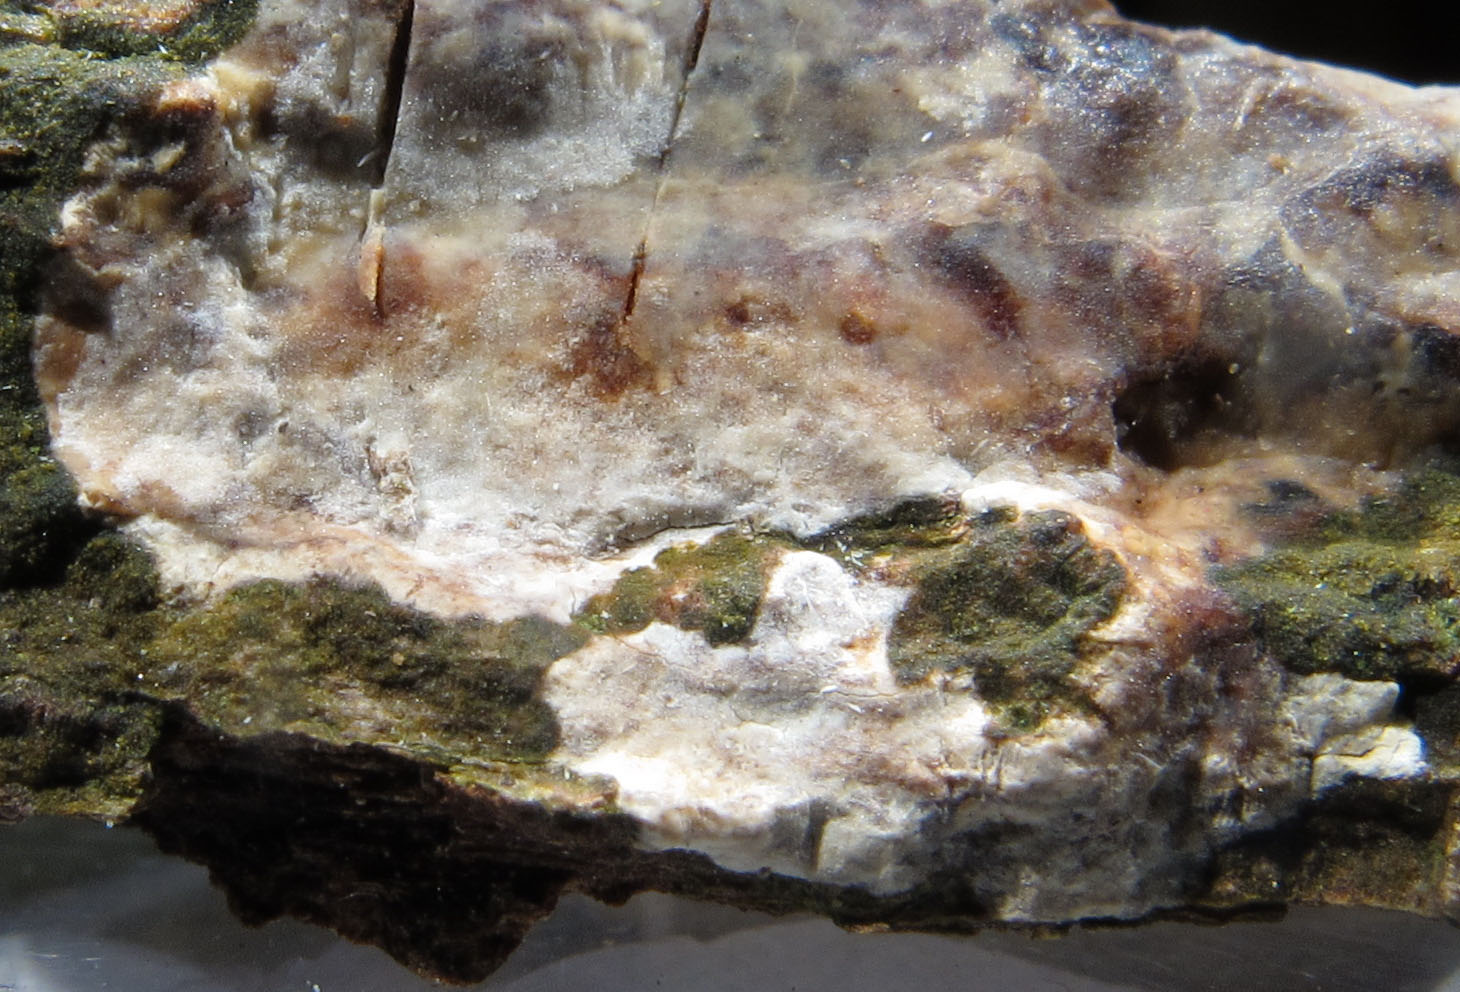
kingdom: Fungi
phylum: Basidiomycota
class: Agaricomycetes
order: Agaricales
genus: Dendrothele
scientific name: Dendrothele pachysterigmata
